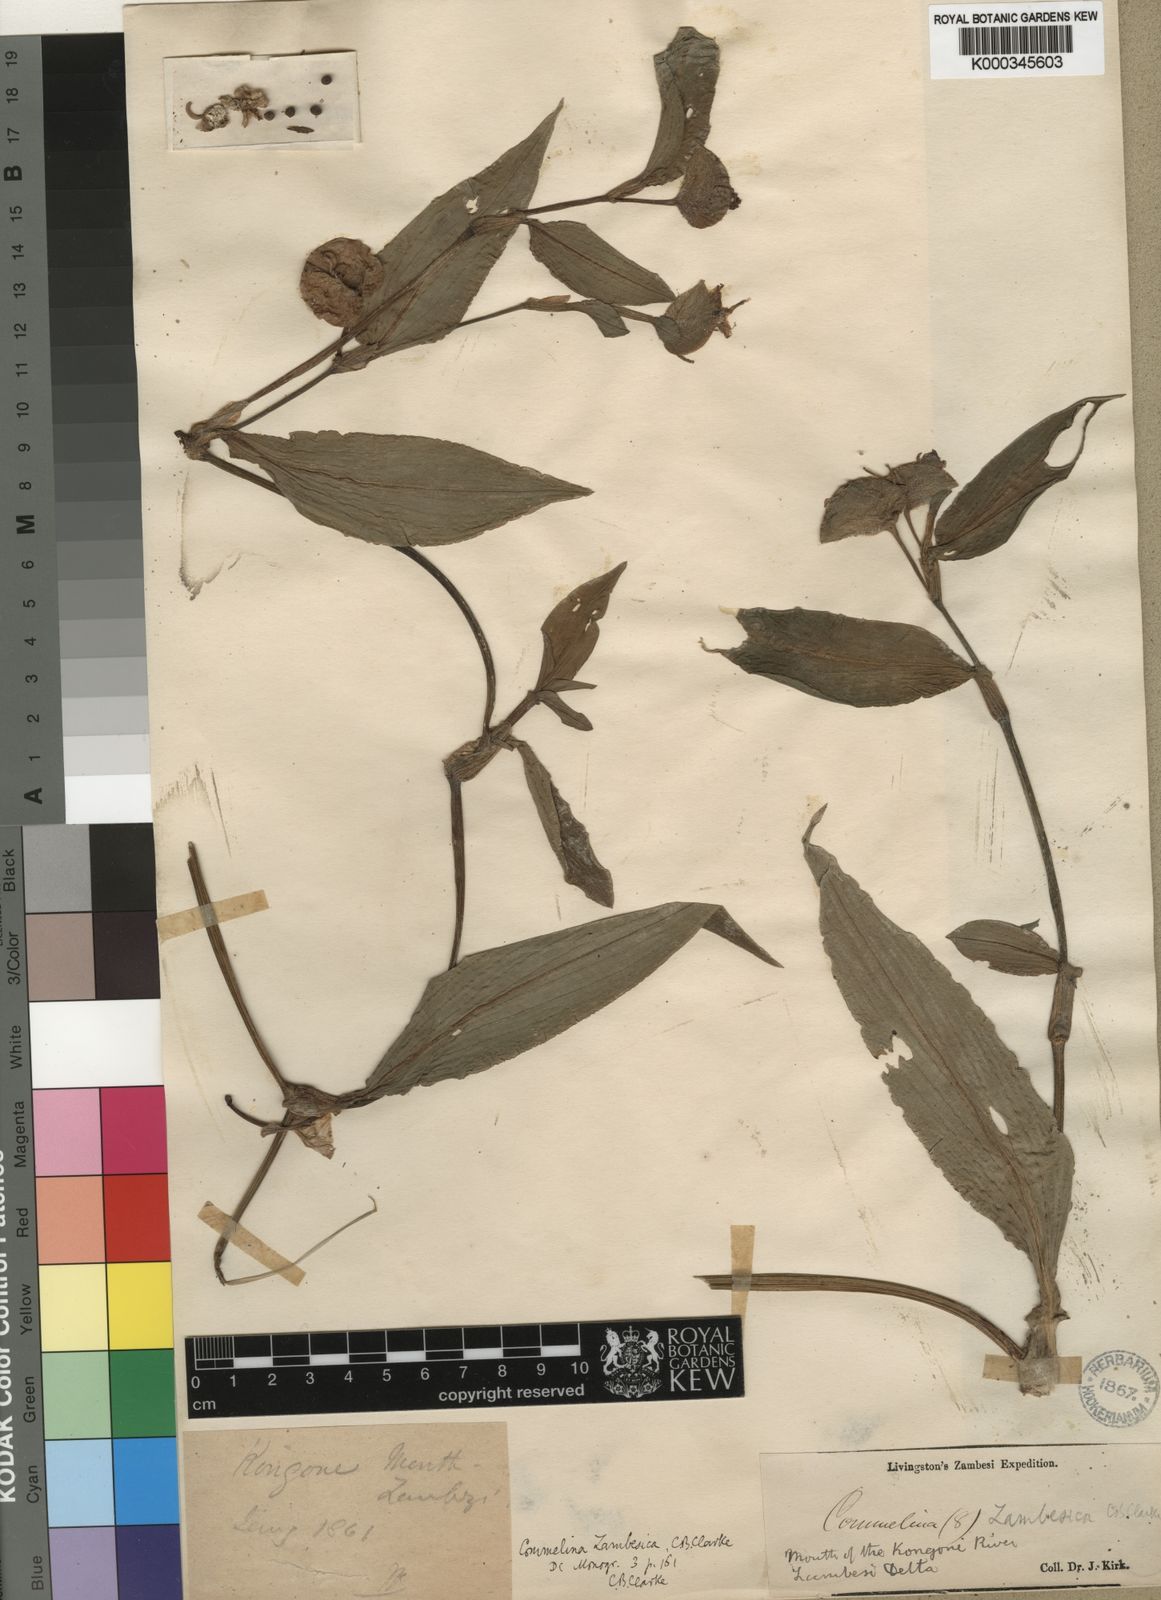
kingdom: Plantae
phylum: Tracheophyta
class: Liliopsida
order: Commelinales
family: Commelinaceae
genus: Commelina
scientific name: Commelina zambesica
